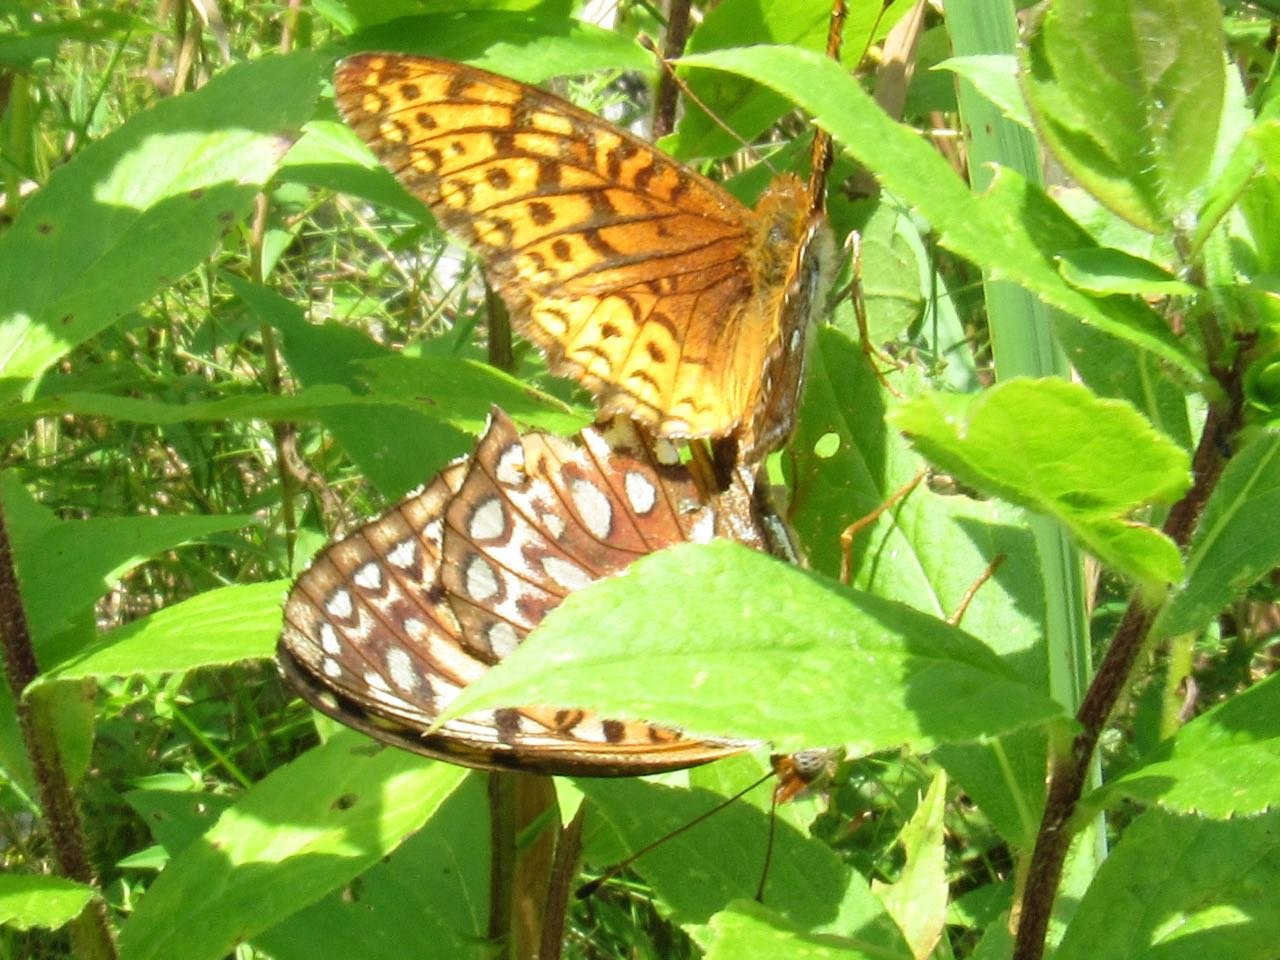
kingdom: Animalia
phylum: Arthropoda
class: Insecta
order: Lepidoptera
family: Nymphalidae
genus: Speyeria
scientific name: Speyeria atlantis
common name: Atlantis Fritillary
